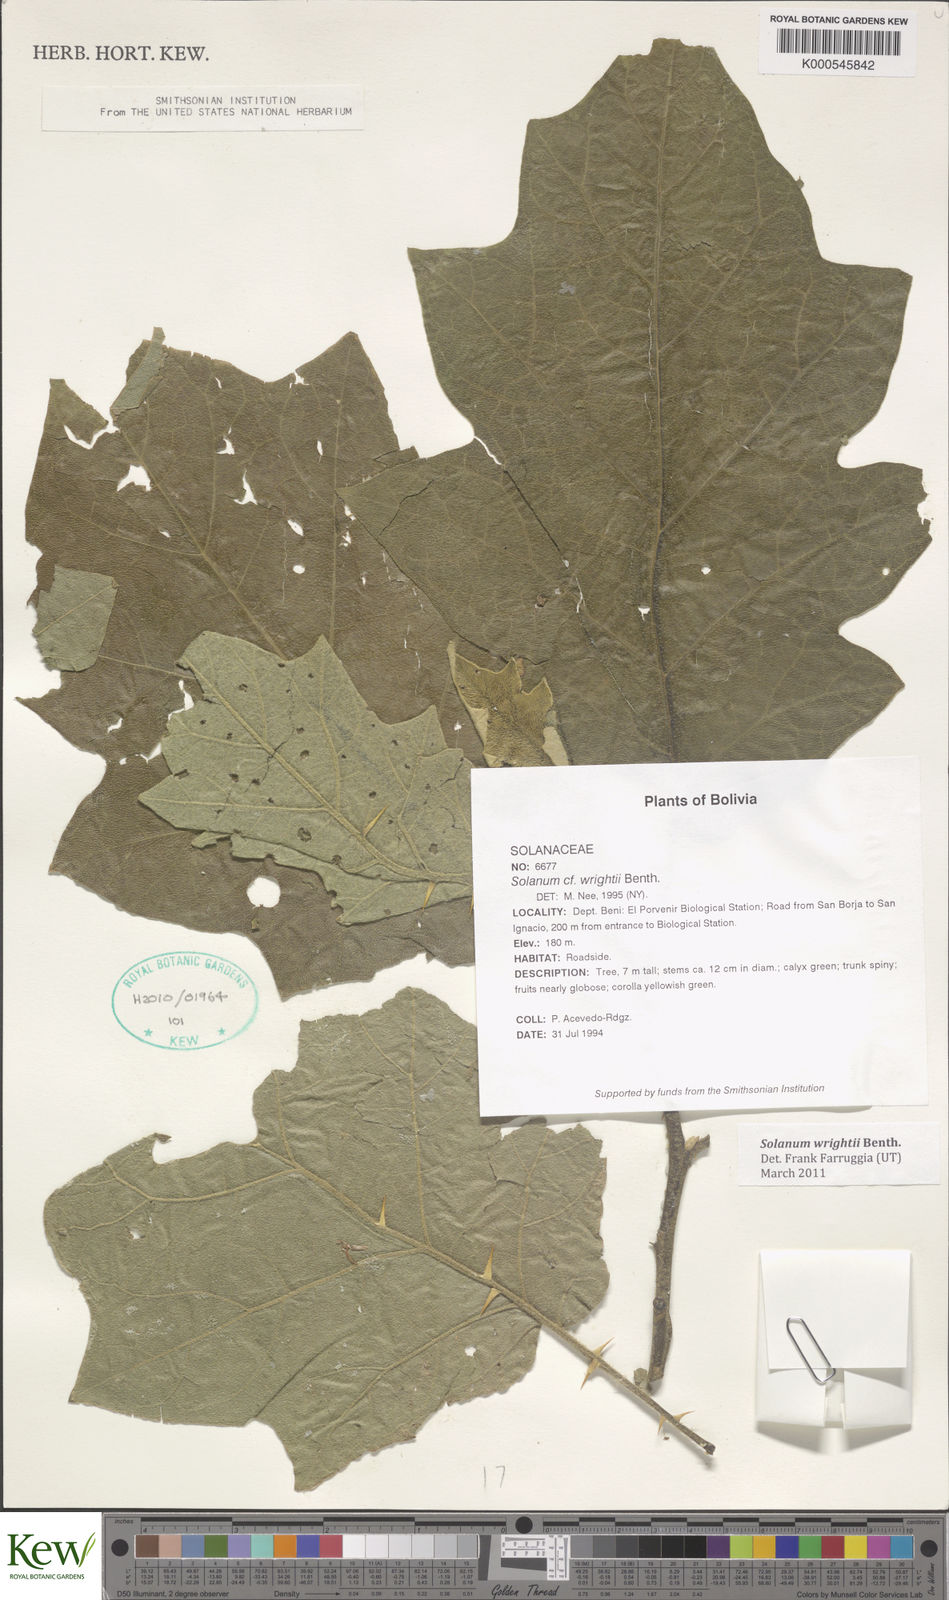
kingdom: Plantae
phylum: Tracheophyta
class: Magnoliopsida
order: Solanales
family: Solanaceae
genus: Solanum
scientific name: Solanum wrightii
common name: Brazilian potato-tree
